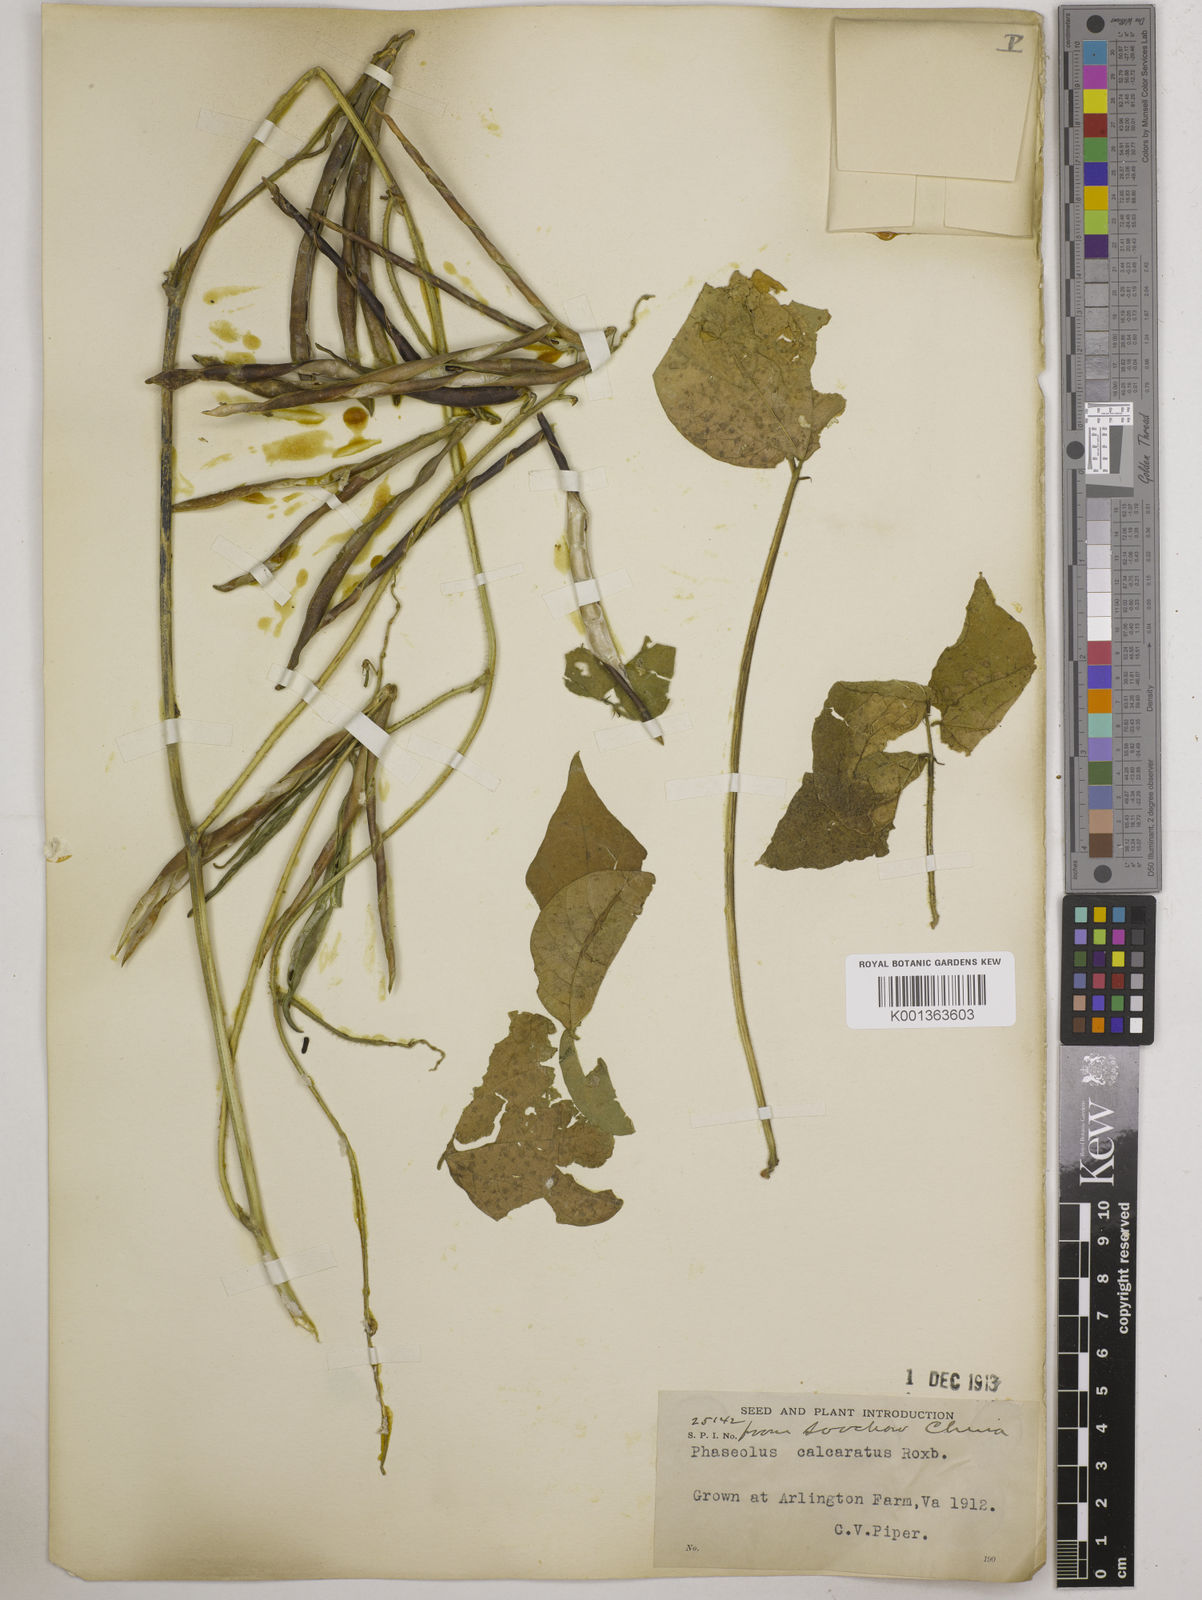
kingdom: Plantae
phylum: Tracheophyta
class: Magnoliopsida
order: Fabales
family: Fabaceae
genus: Vigna
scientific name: Vigna umbellata
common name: Oriental-bean
